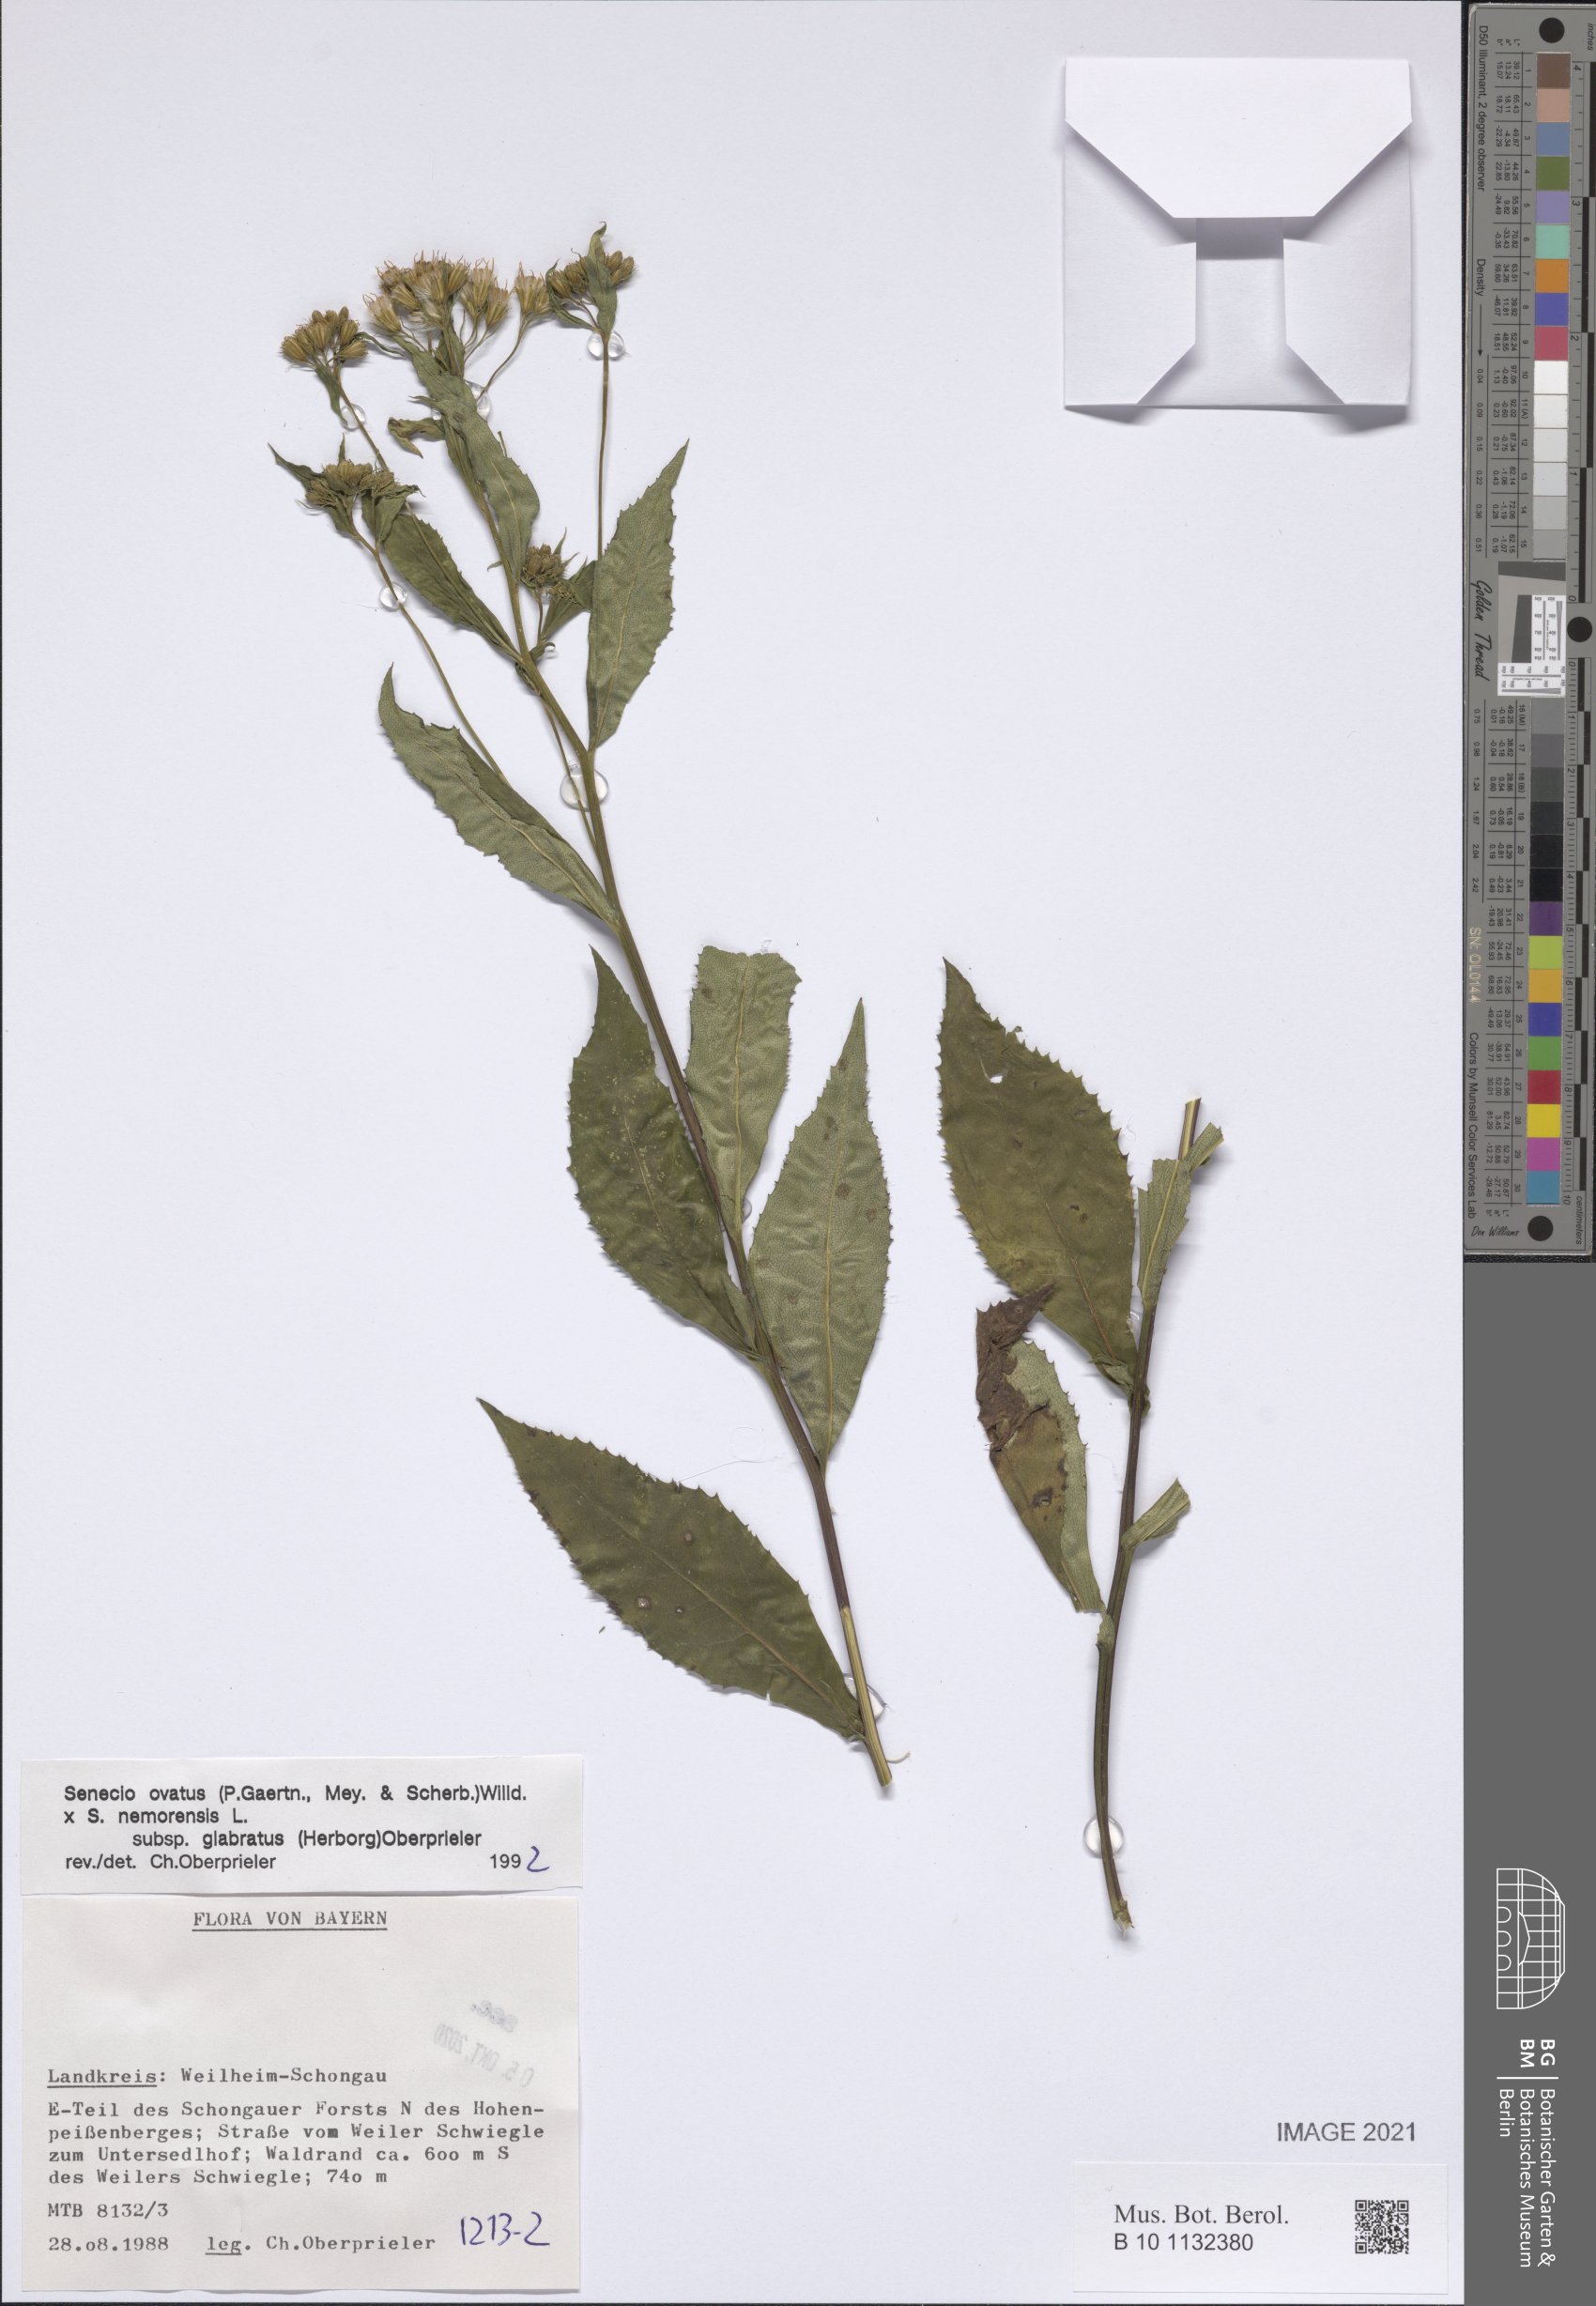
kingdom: Plantae
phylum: Tracheophyta
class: Magnoliopsida
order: Asterales
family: Asteraceae
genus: Senecio
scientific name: Senecio ovatus
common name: Wood ragwort
